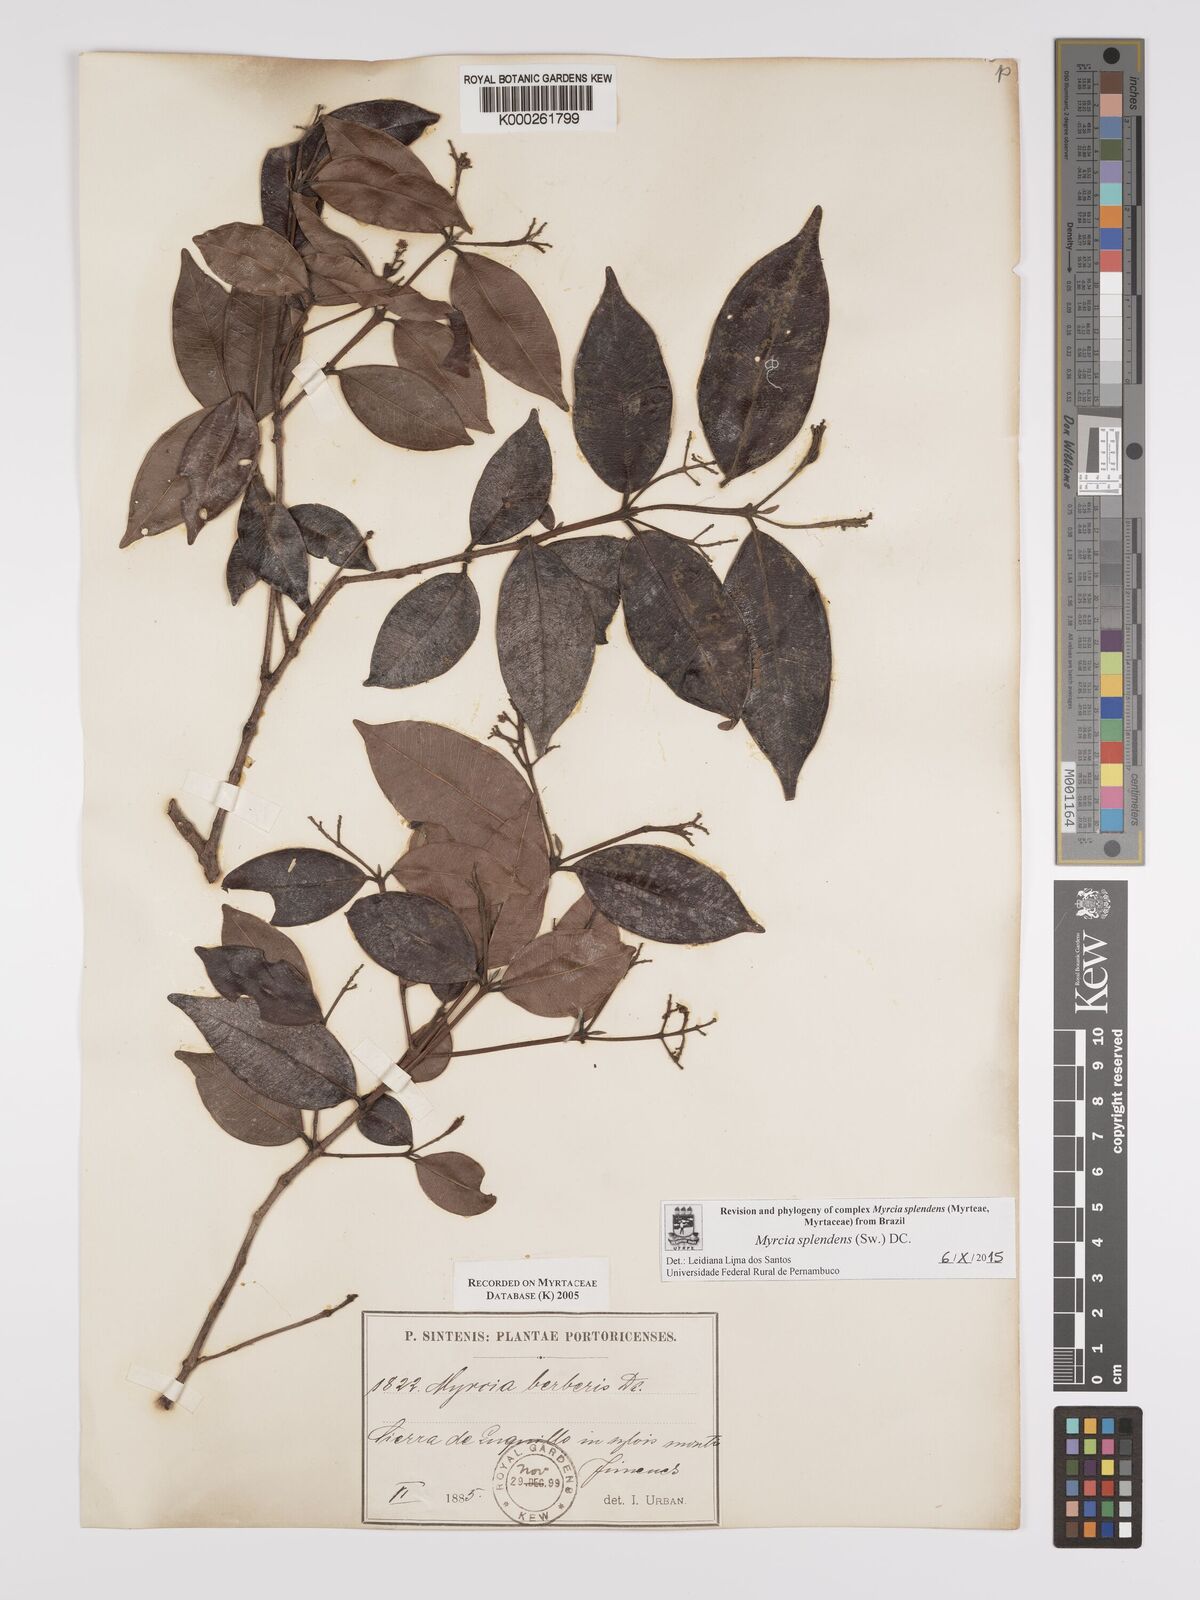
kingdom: Plantae
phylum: Tracheophyta
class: Magnoliopsida
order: Myrtales
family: Myrtaceae
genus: Myrcia
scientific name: Myrcia splendens
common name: Surinam cherry
